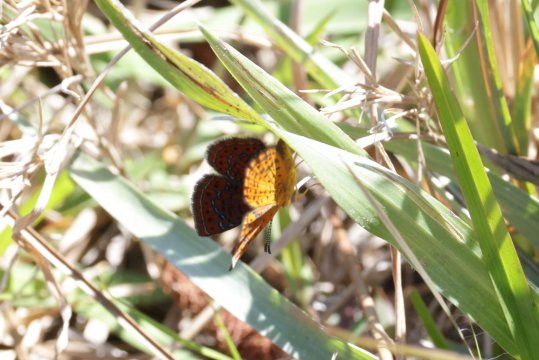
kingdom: Animalia
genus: Calephelis
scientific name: Calephelis virginiensis
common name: Little Metalmark
